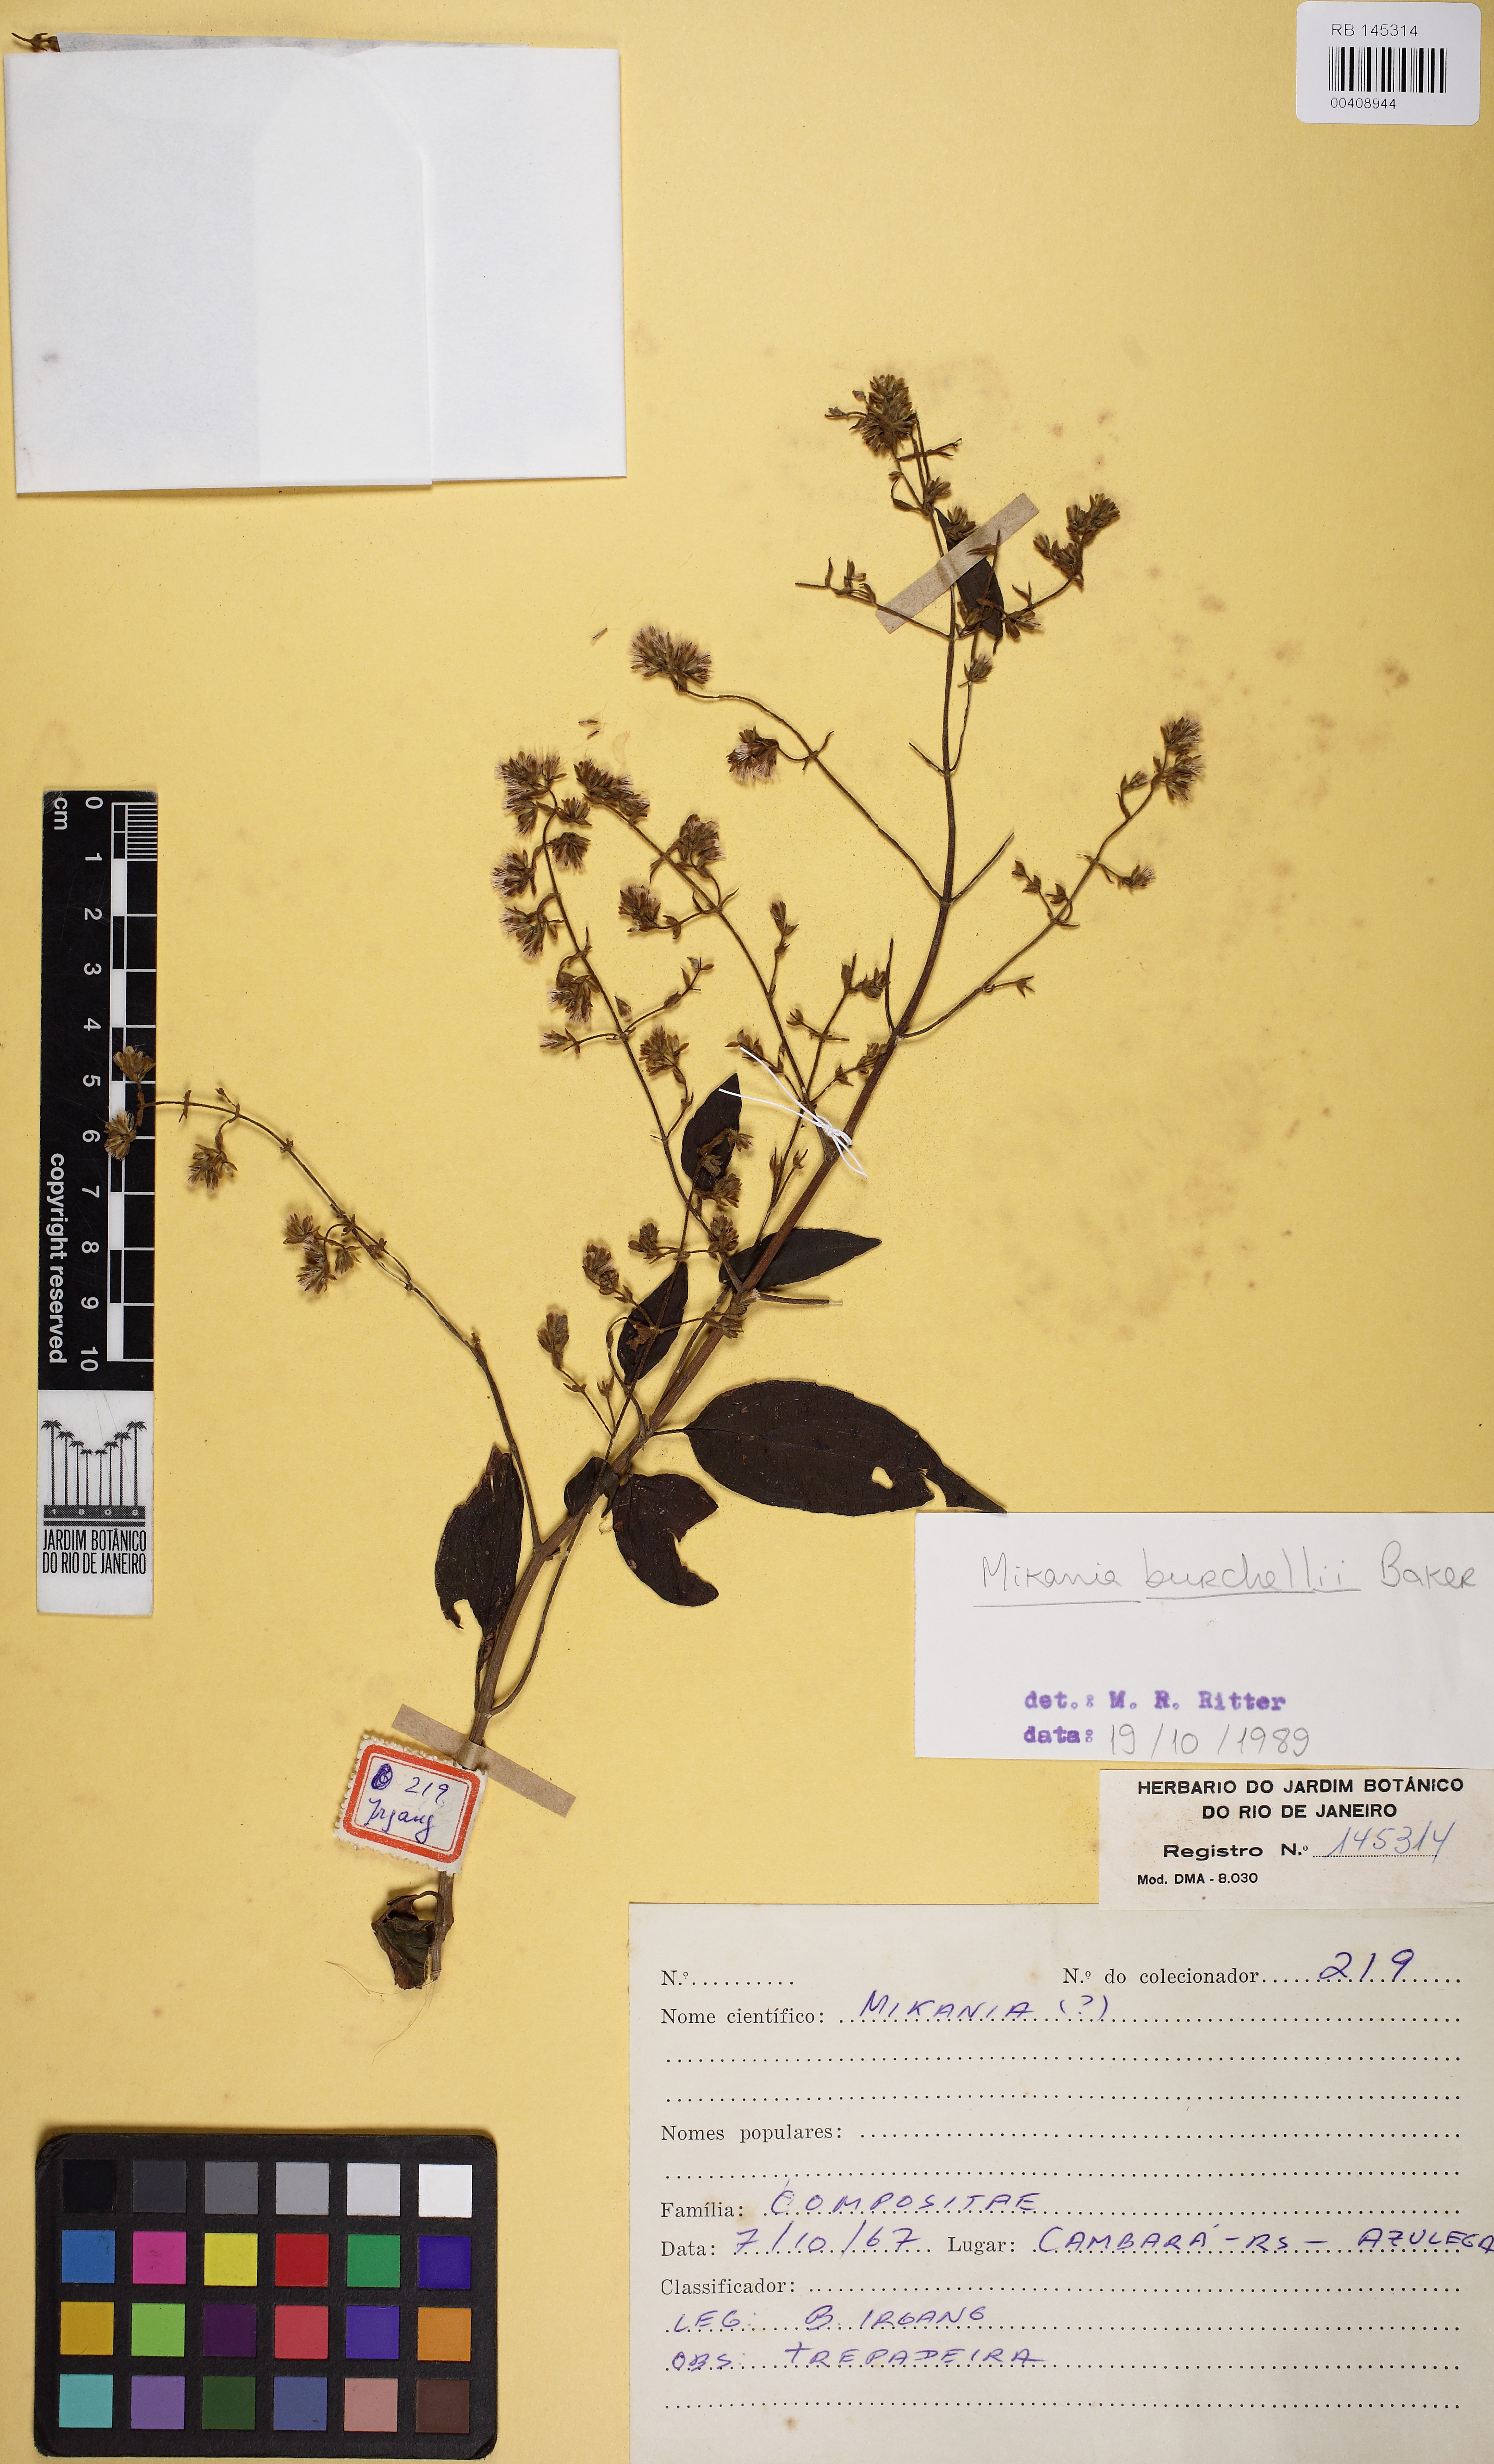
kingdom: Plantae
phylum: Tracheophyta
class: Magnoliopsida
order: Asterales
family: Asteraceae
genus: Mikania
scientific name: Mikania burchellii
